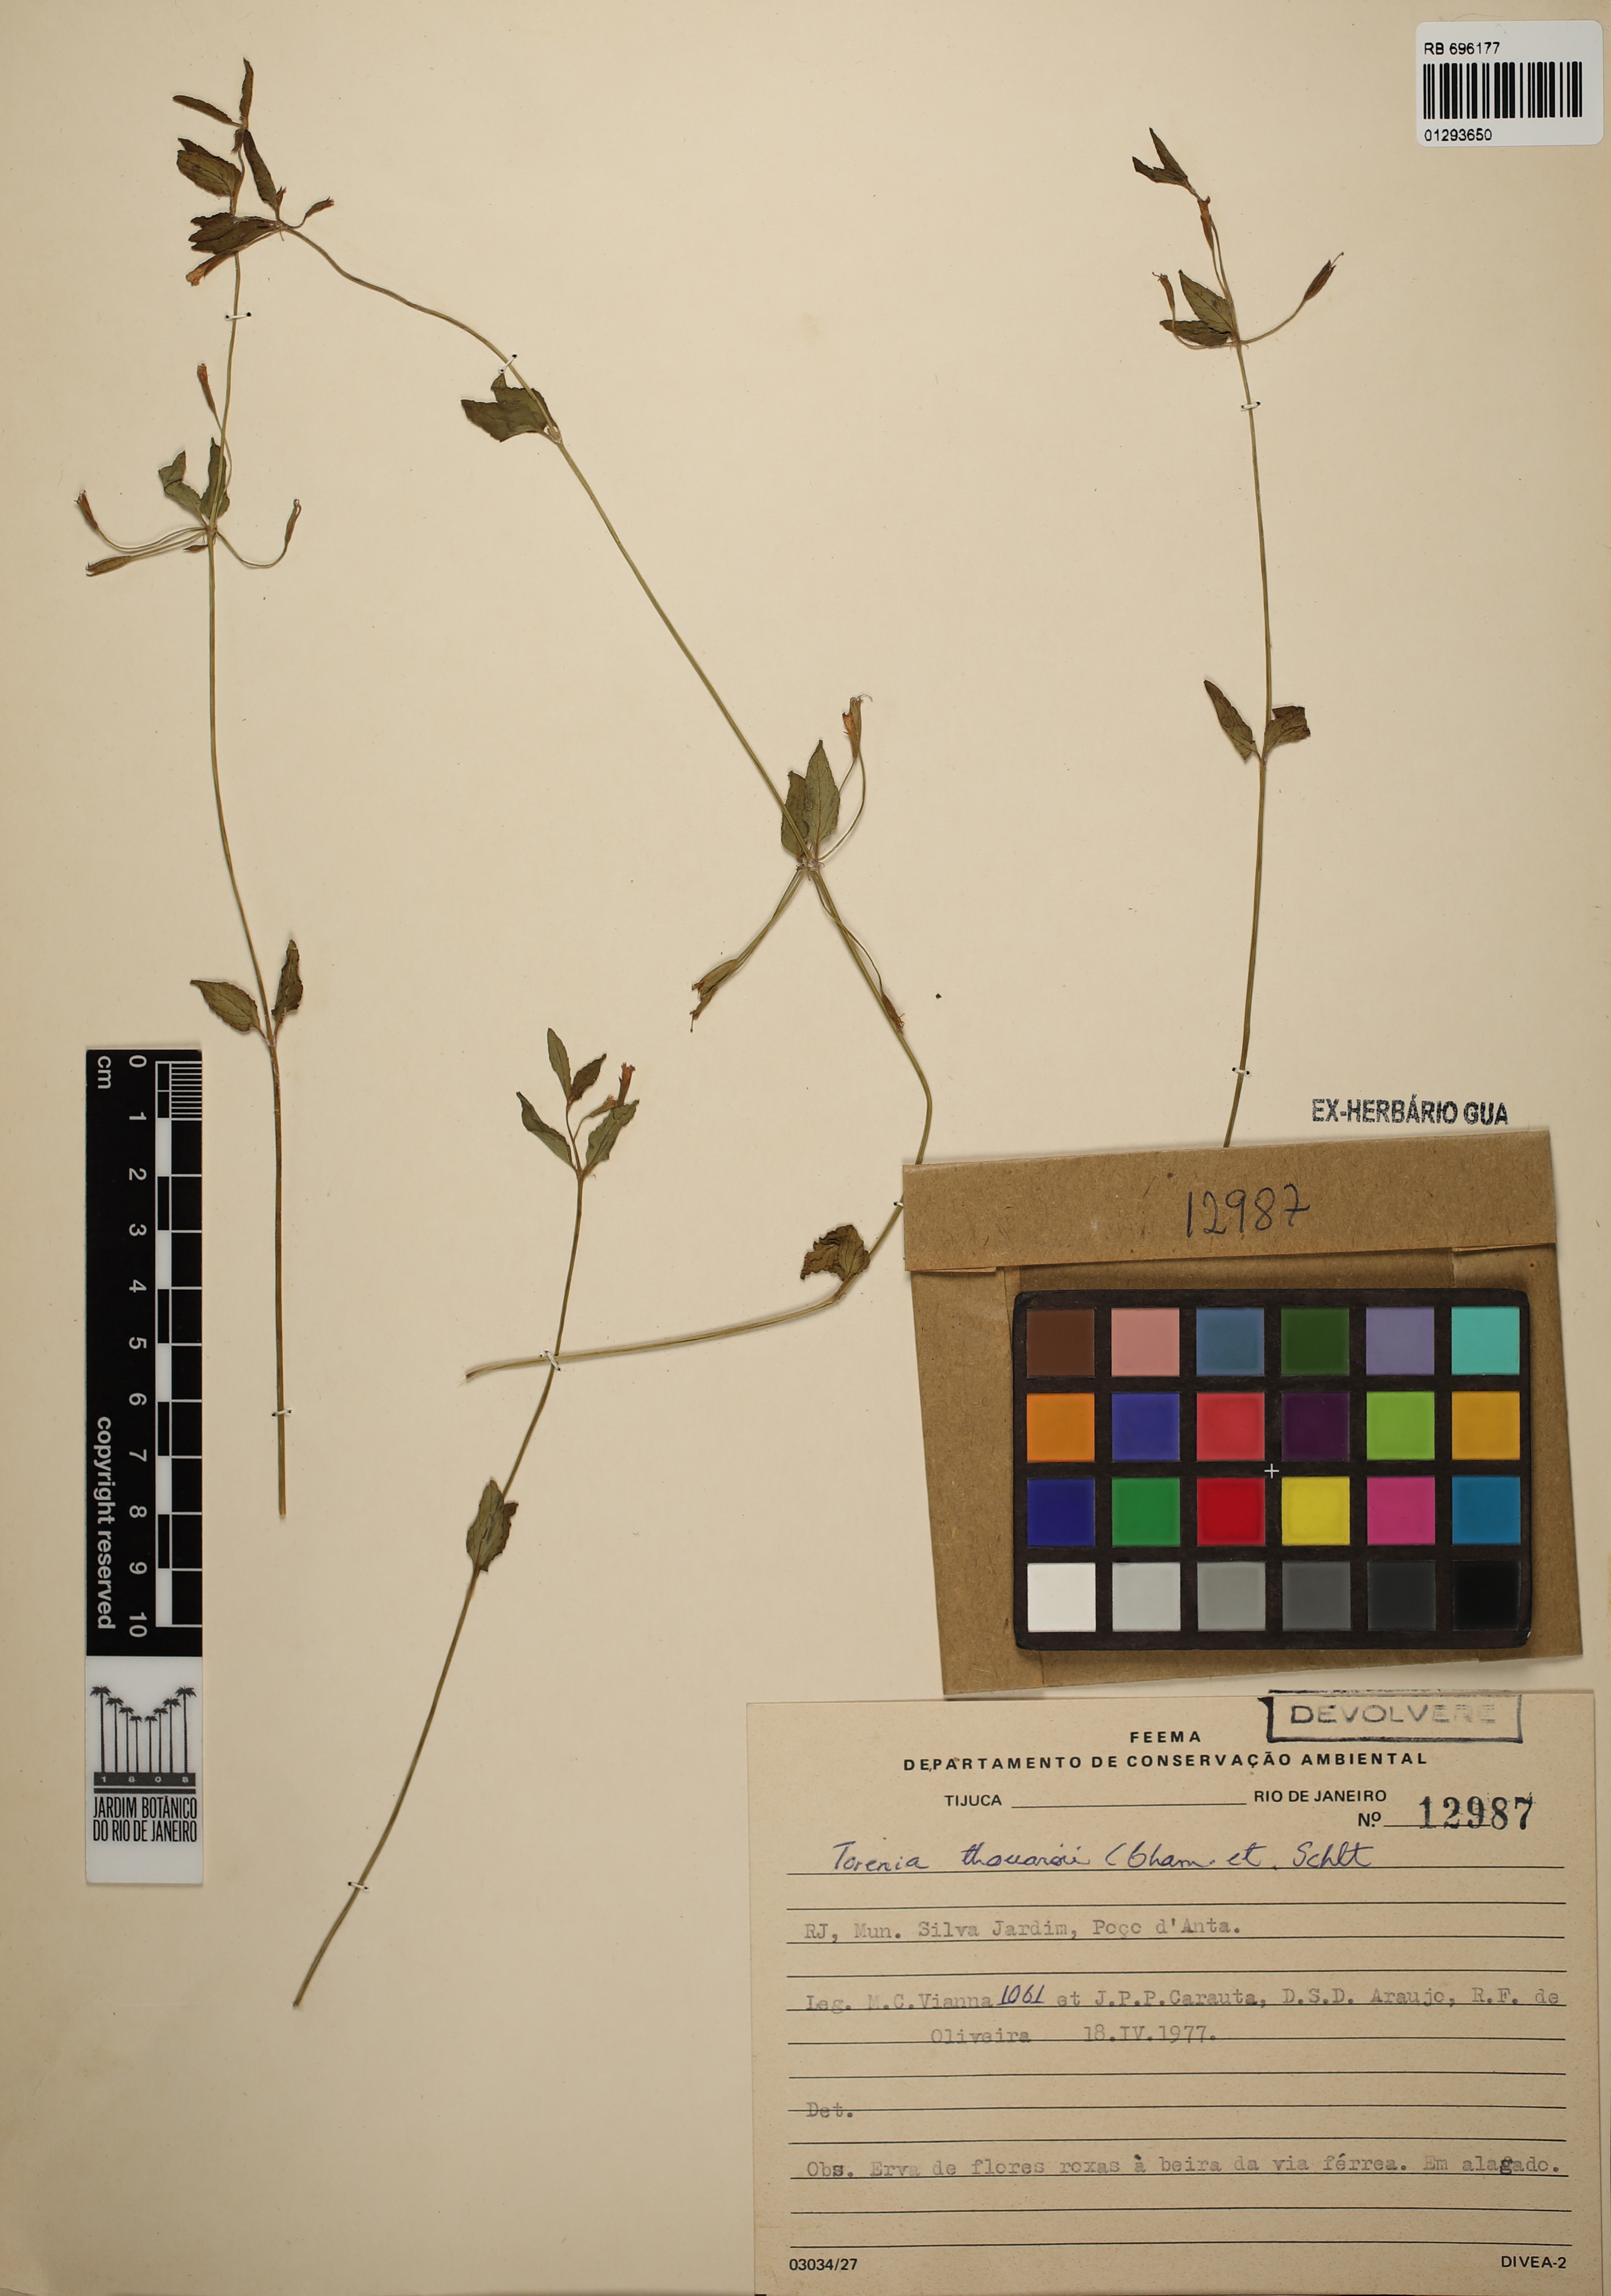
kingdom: Plantae
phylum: Tracheophyta
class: Magnoliopsida
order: Lamiales
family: Linderniaceae
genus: Torenia
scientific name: Torenia thouarsii
